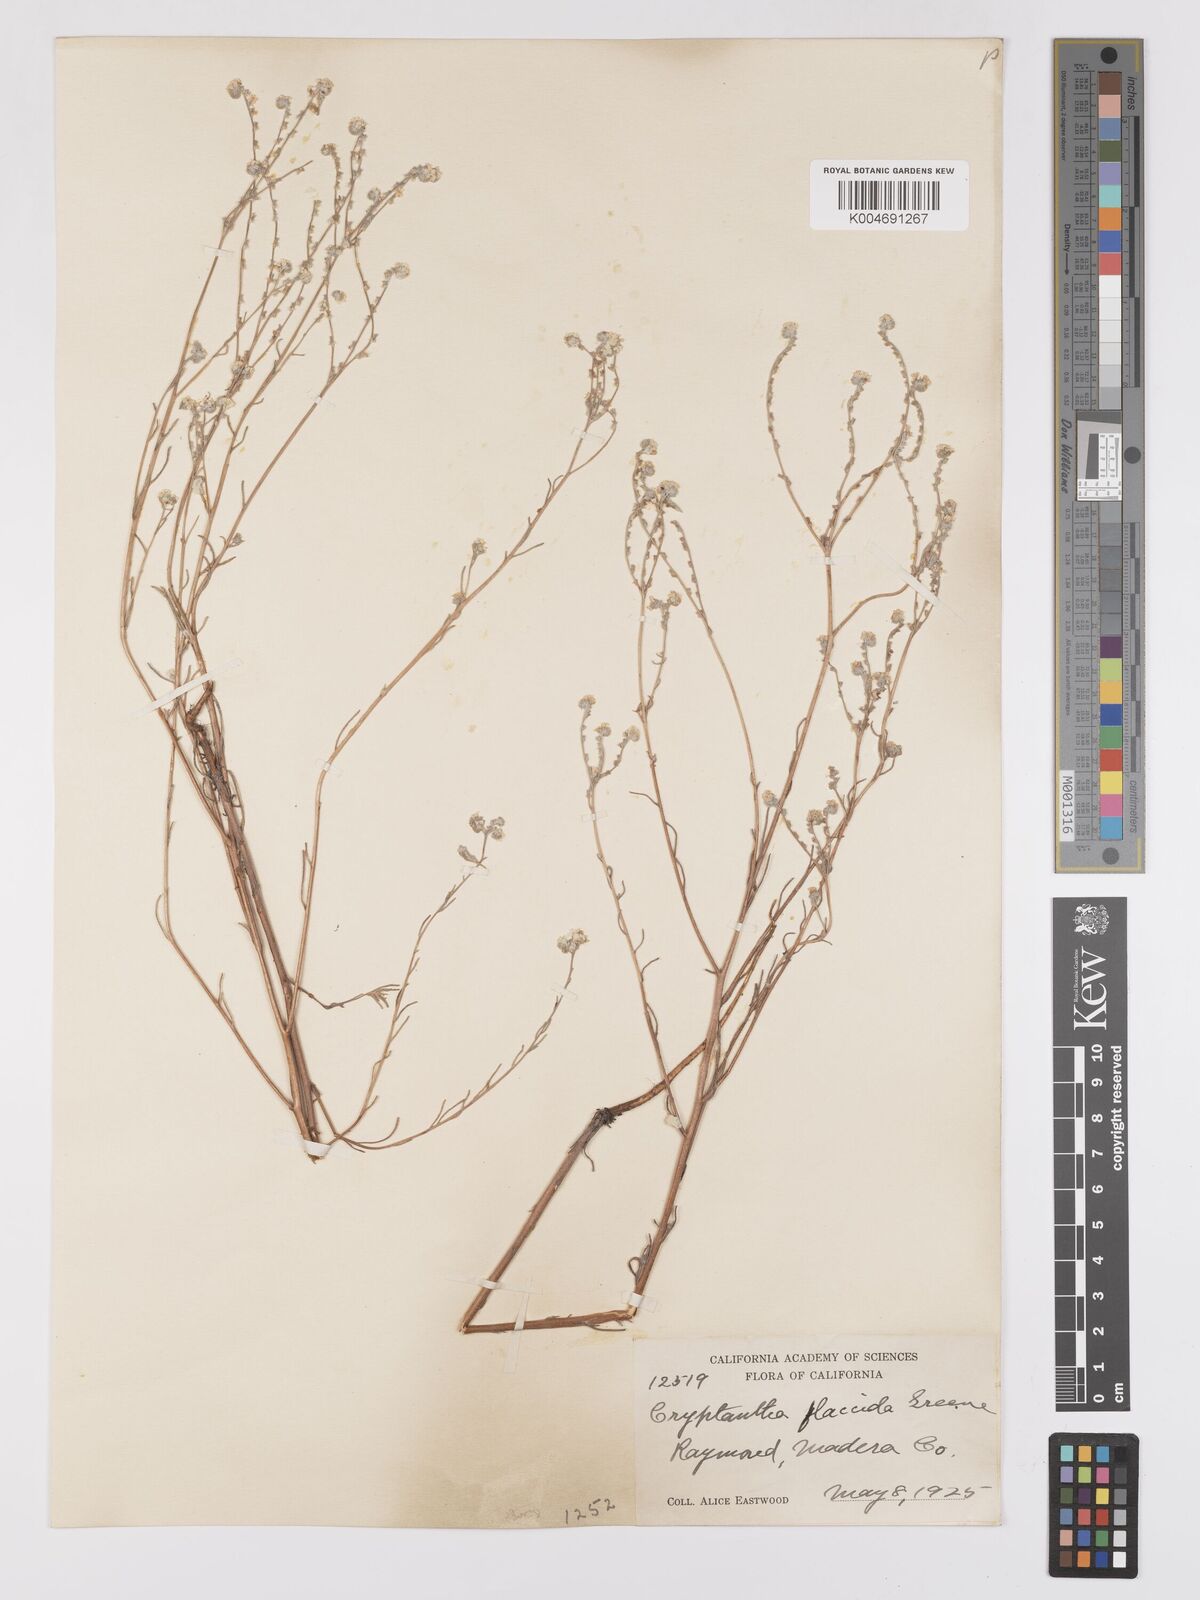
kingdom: Plantae
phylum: Tracheophyta
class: Magnoliopsida
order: Boraginales
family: Boraginaceae
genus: Cryptantha
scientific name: Cryptantha flaccida
